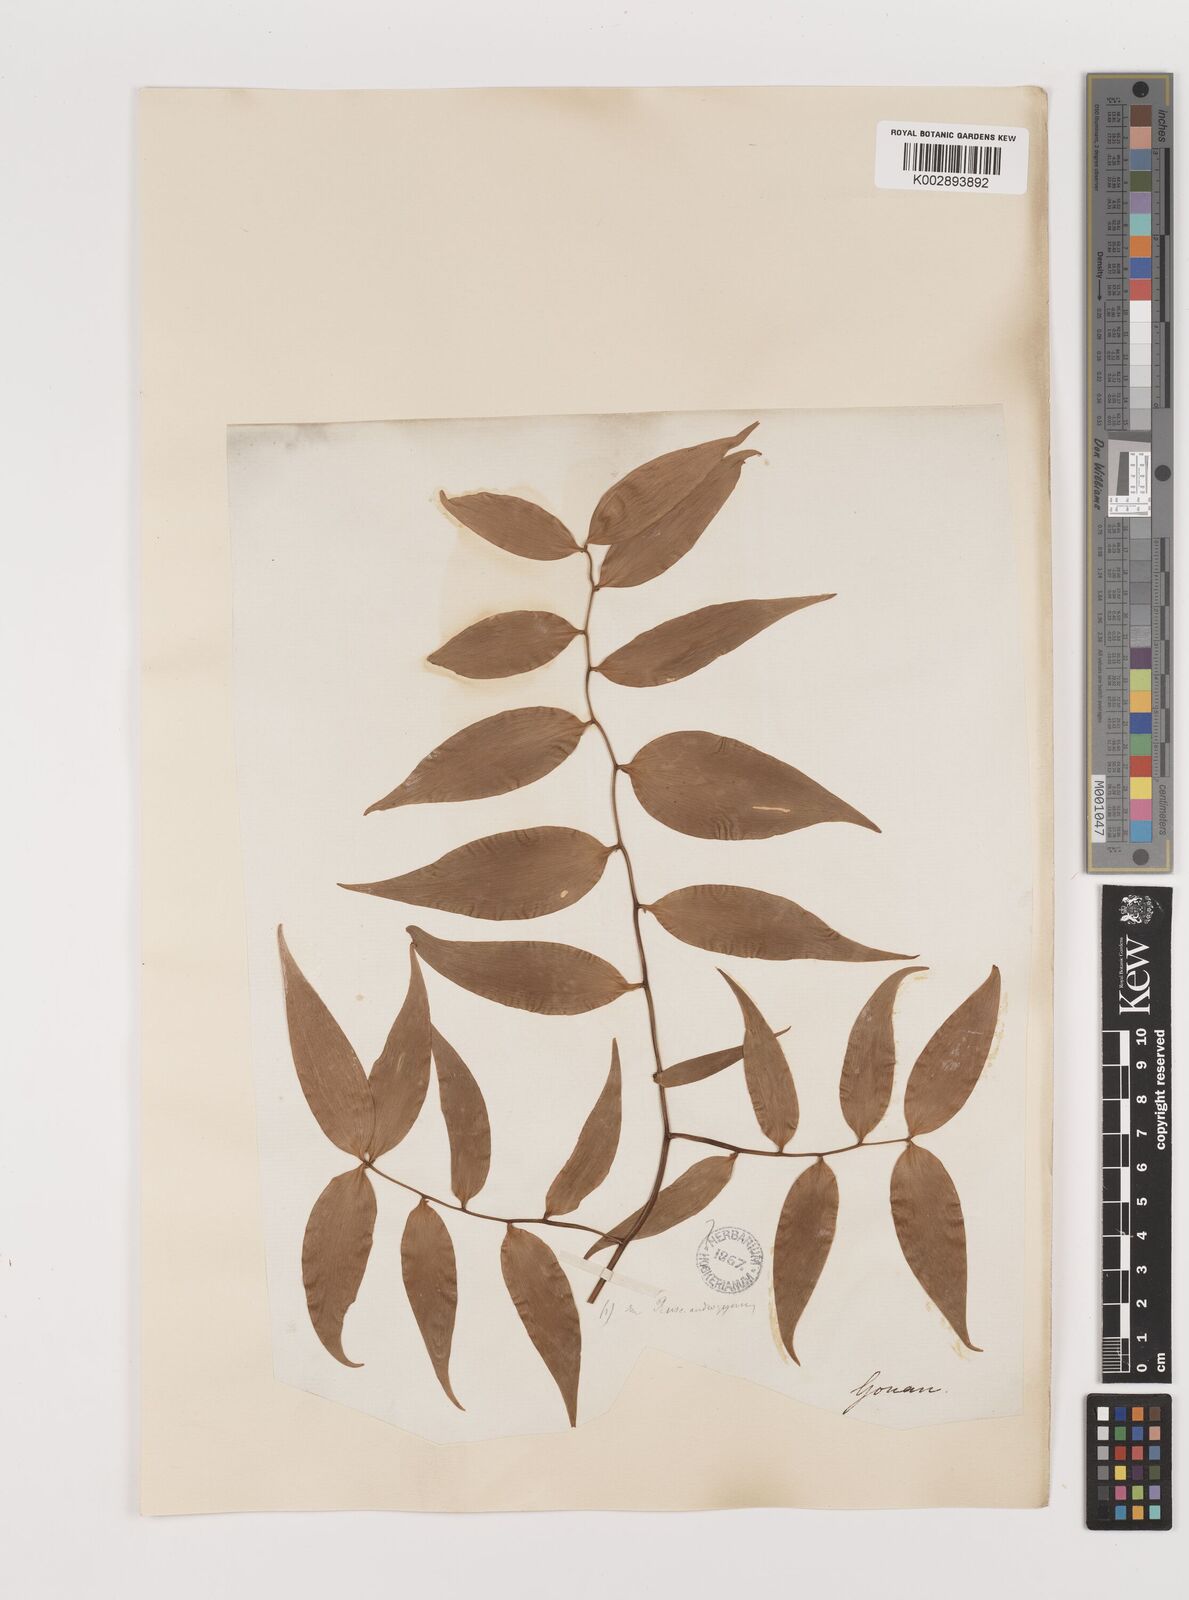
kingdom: Plantae
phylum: Tracheophyta
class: Liliopsida
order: Asparagales
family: Asparagaceae
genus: Semele
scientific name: Semele androgyna
